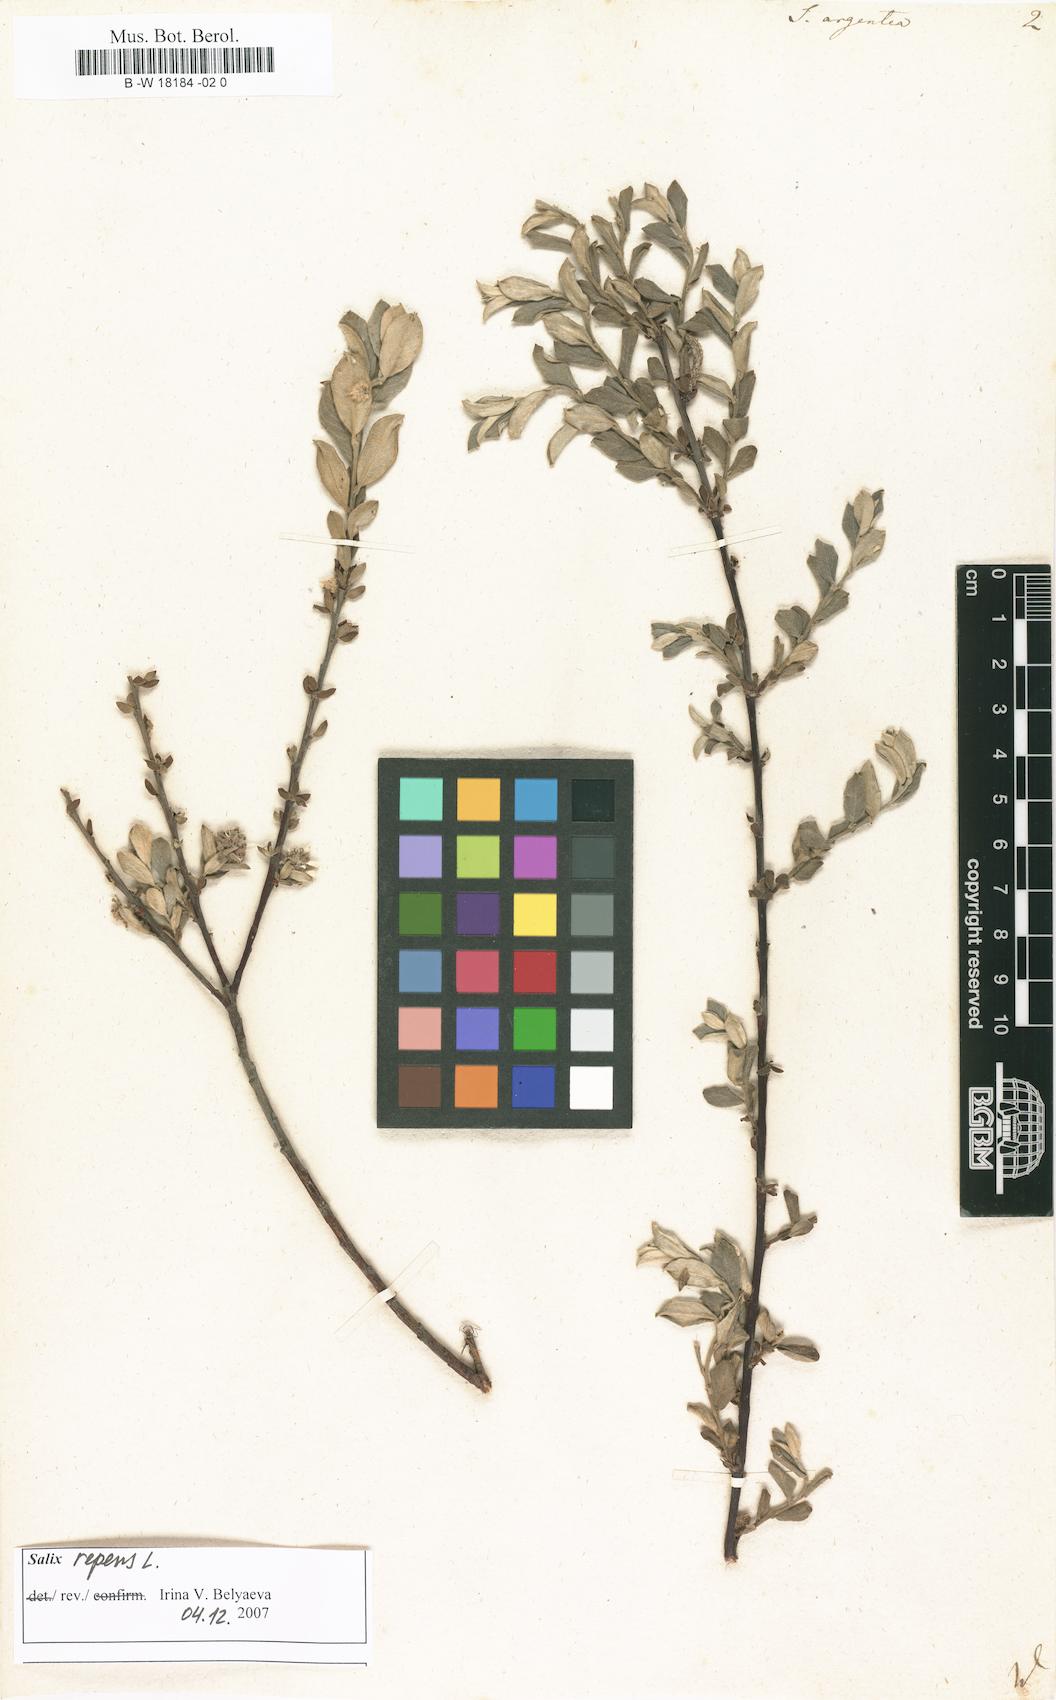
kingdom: Plantae
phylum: Tracheophyta
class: Magnoliopsida
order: Malpighiales
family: Salicaceae
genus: Salix
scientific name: Salix repens
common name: Creeping willow
